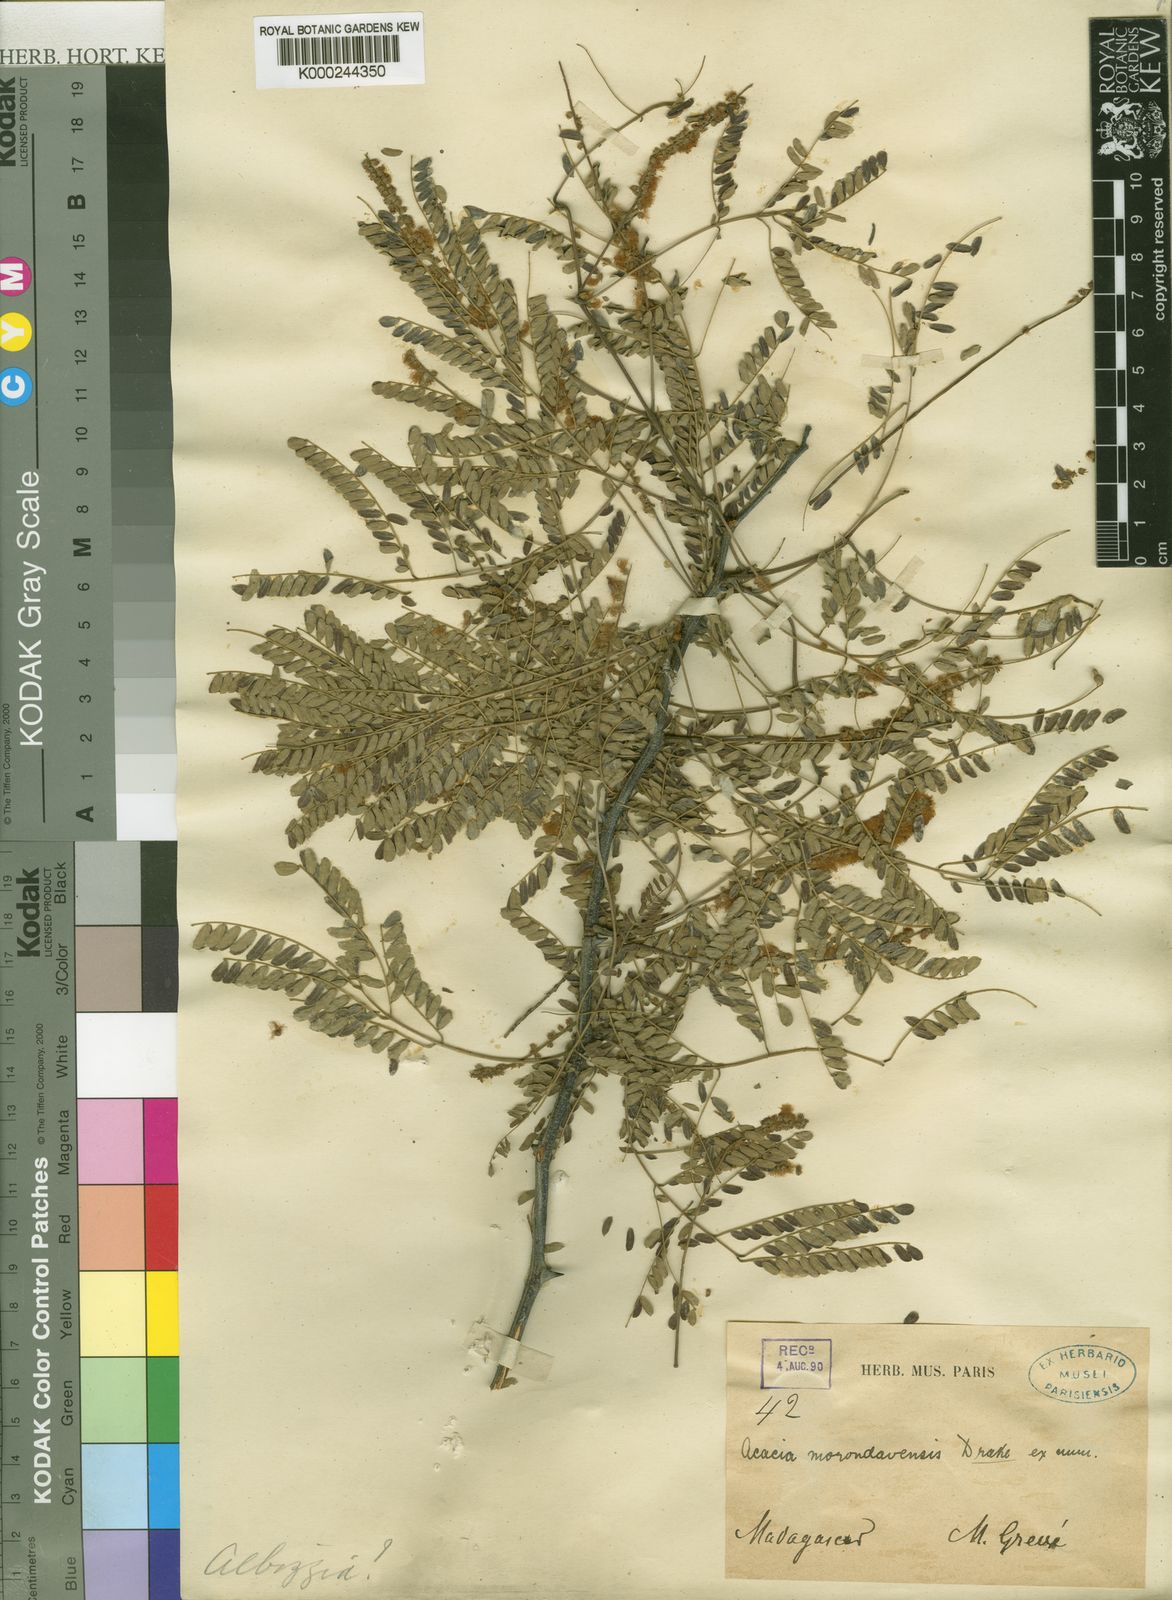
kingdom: Plantae
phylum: Tracheophyta
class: Magnoliopsida
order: Fabales
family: Fabaceae
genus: Senegalia
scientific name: Senegalia rovumae
